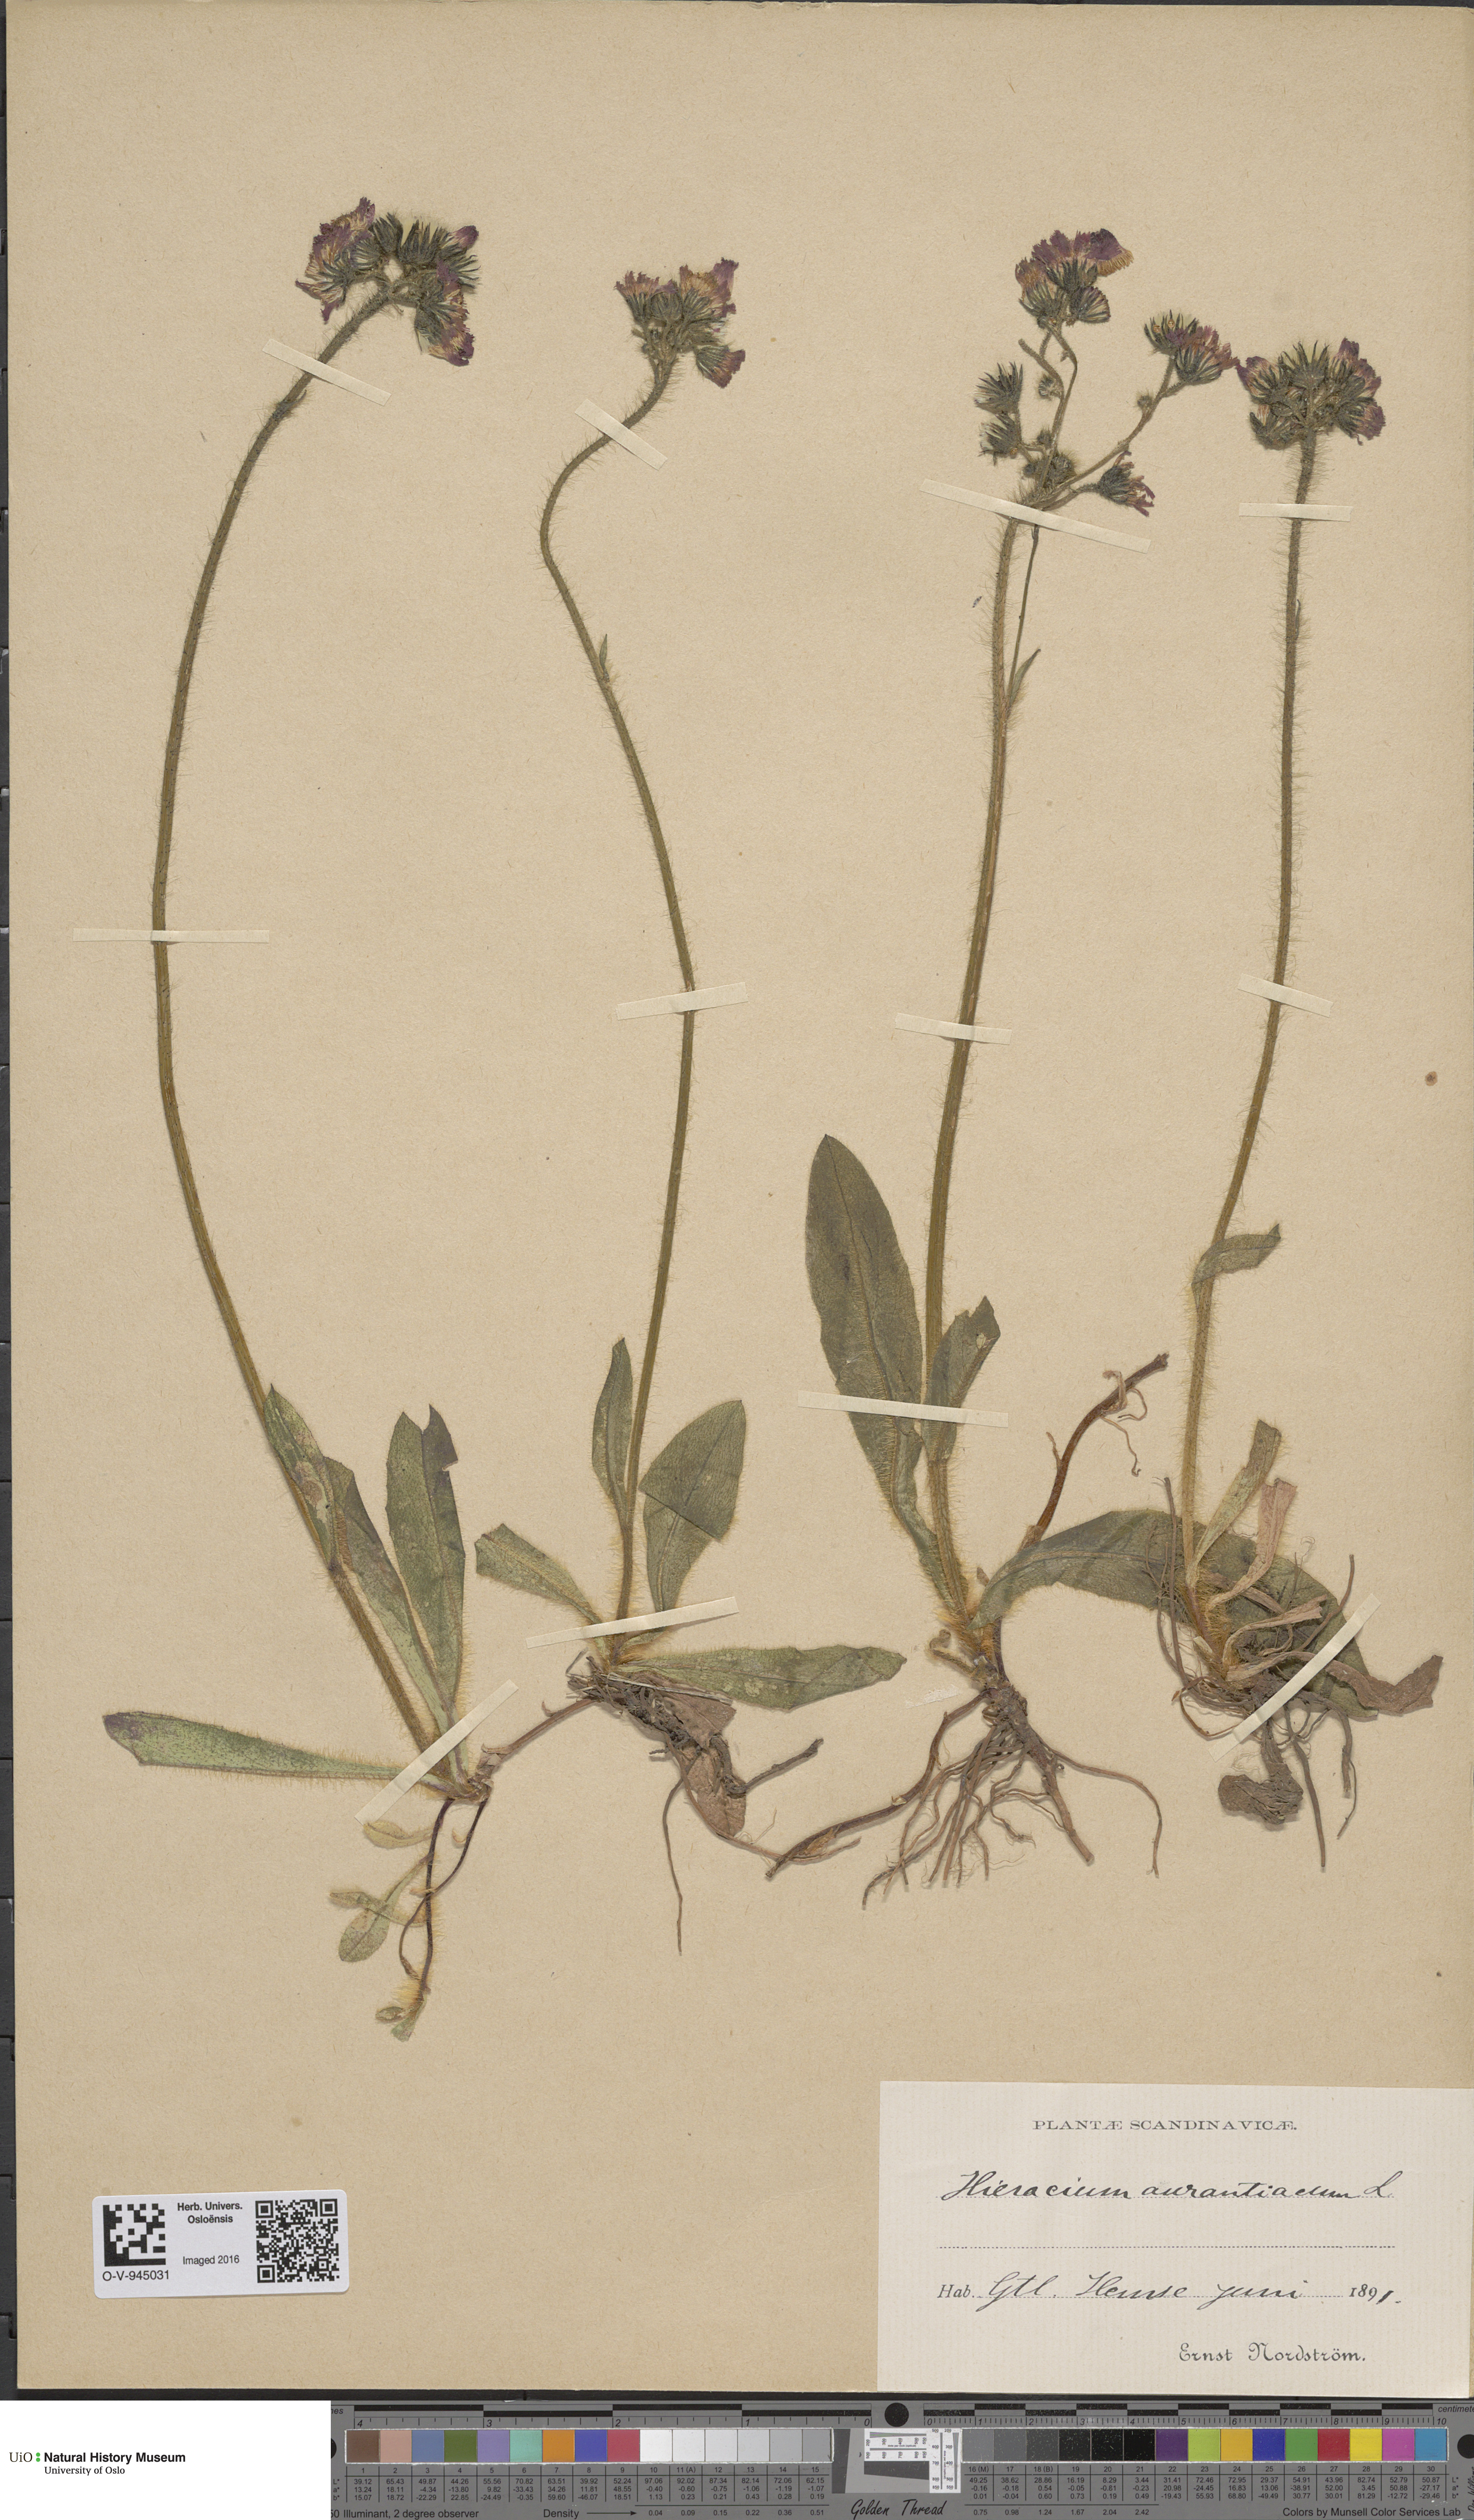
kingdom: Plantae
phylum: Tracheophyta
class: Magnoliopsida
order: Asterales
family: Asteraceae
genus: Pilosella
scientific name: Pilosella aurantiaca
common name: Fox-and-cubs
